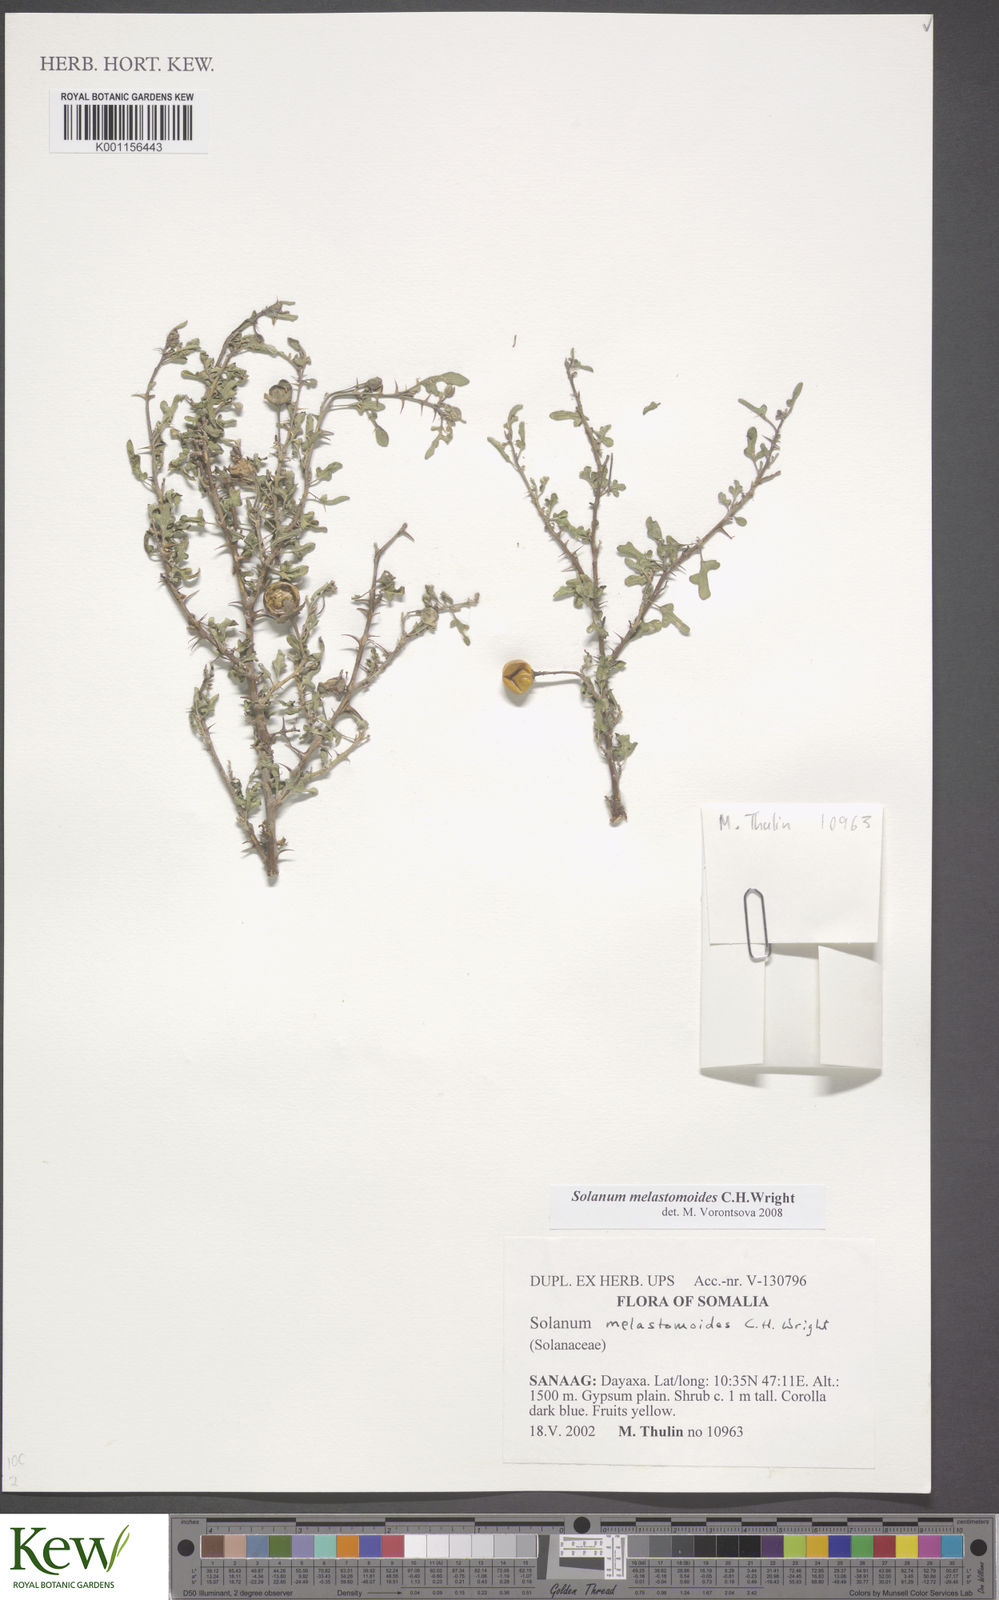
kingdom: Plantae
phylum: Tracheophyta
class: Magnoliopsida
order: Solanales
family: Solanaceae
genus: Solanum
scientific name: Solanum melastomoides
